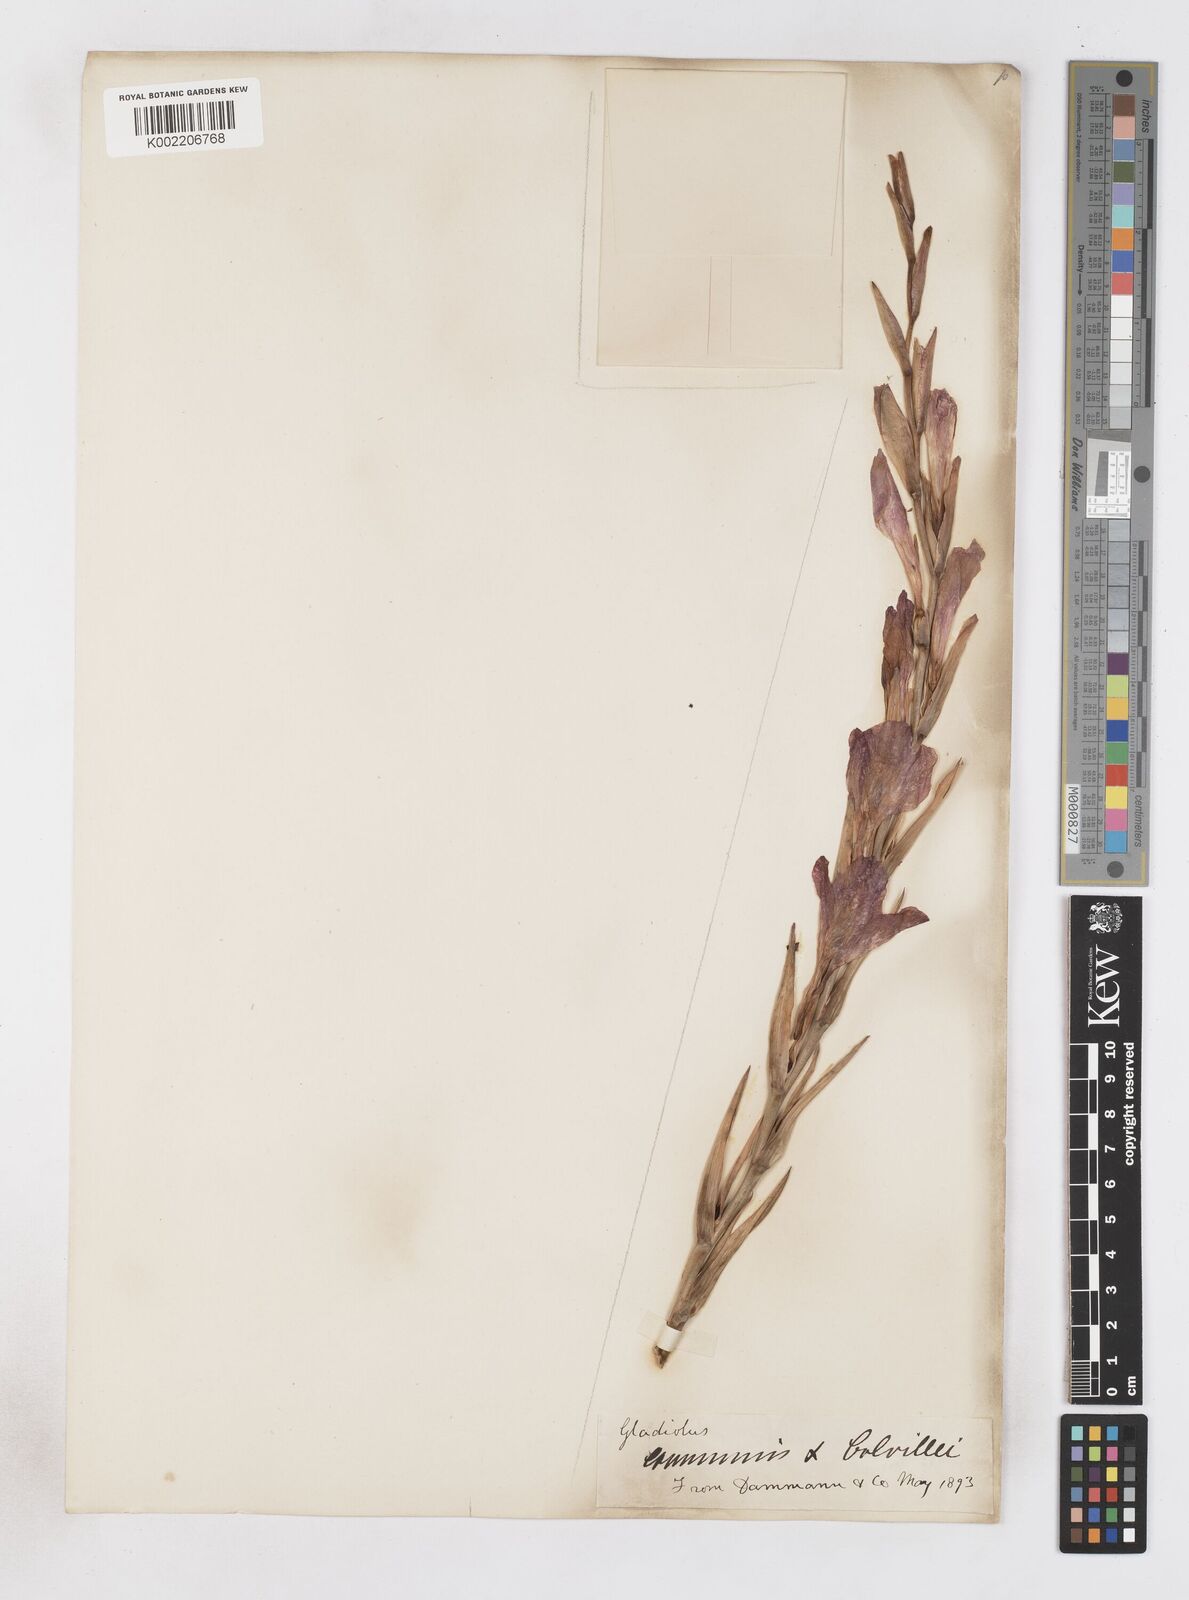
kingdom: Plantae
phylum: Tracheophyta
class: Liliopsida
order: Asparagales
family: Iridaceae
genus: Gladiolus
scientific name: Gladiolus communis
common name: Eastern gladiolus
